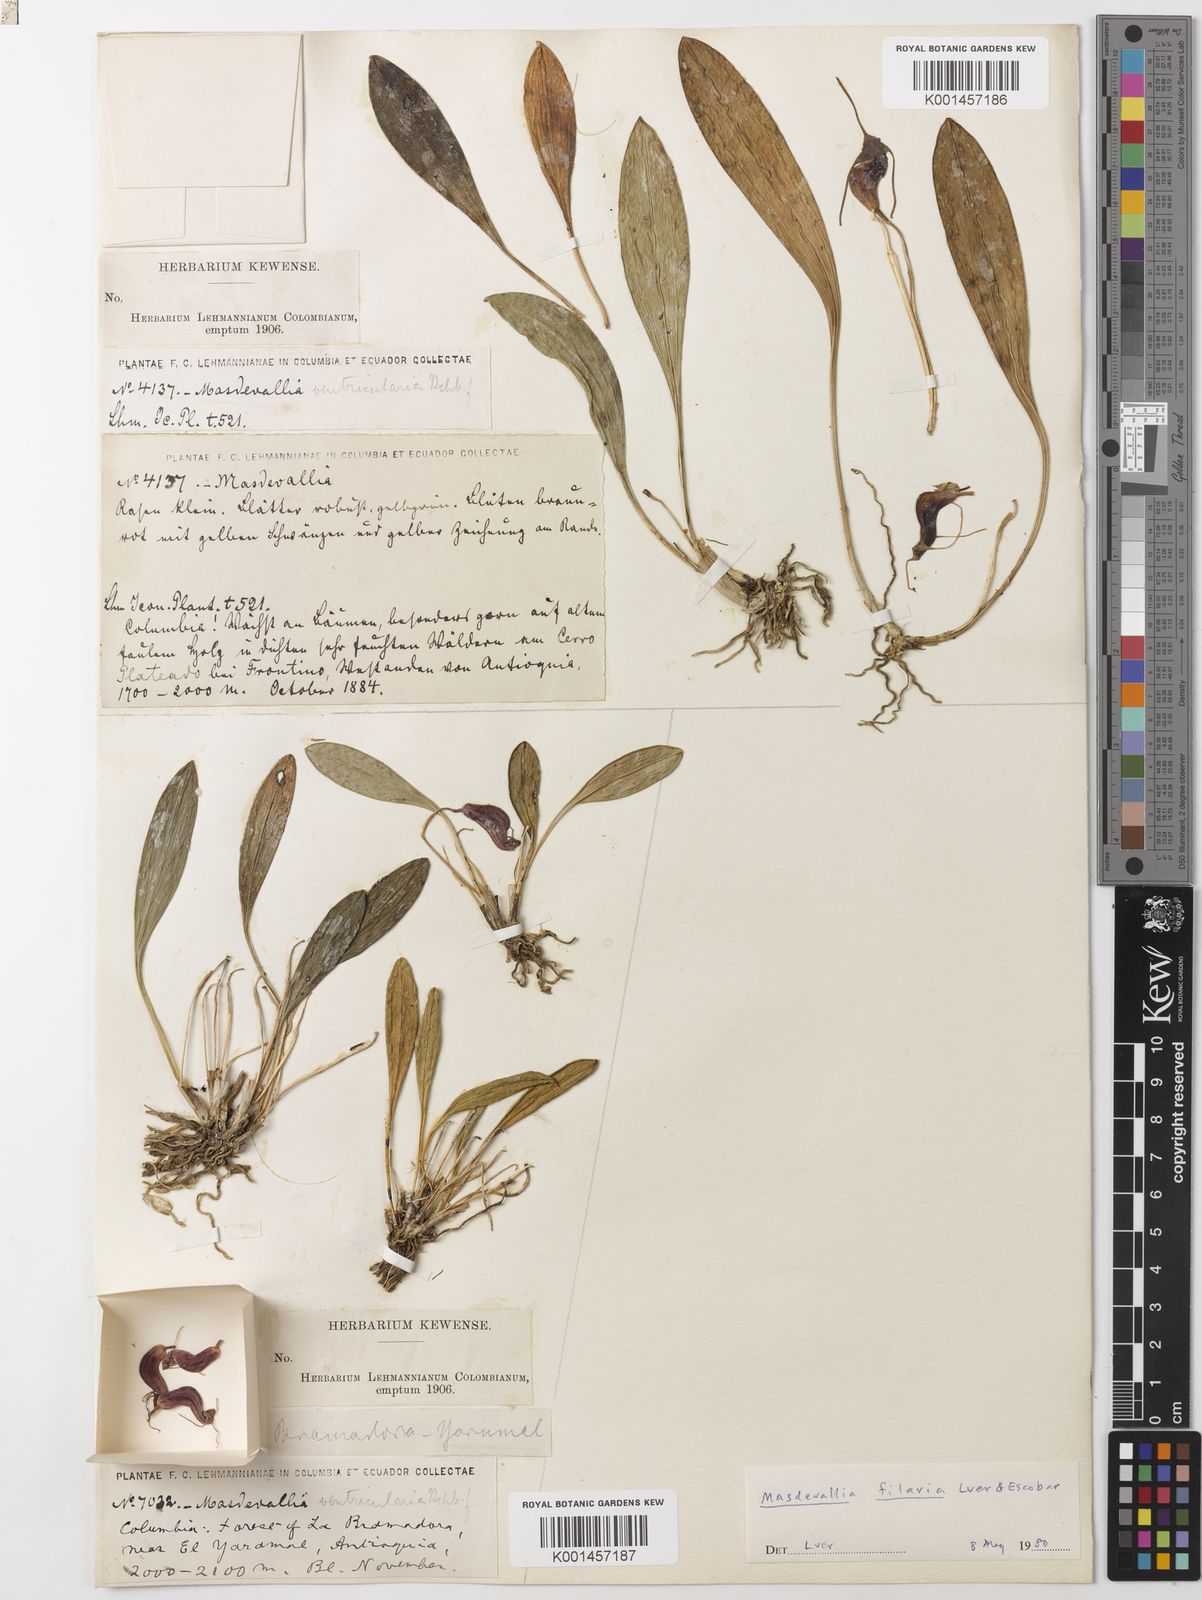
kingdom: Plantae
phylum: Tracheophyta
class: Liliopsida
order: Asparagales
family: Orchidaceae
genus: Masdevallia
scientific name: Masdevallia ventricularia
